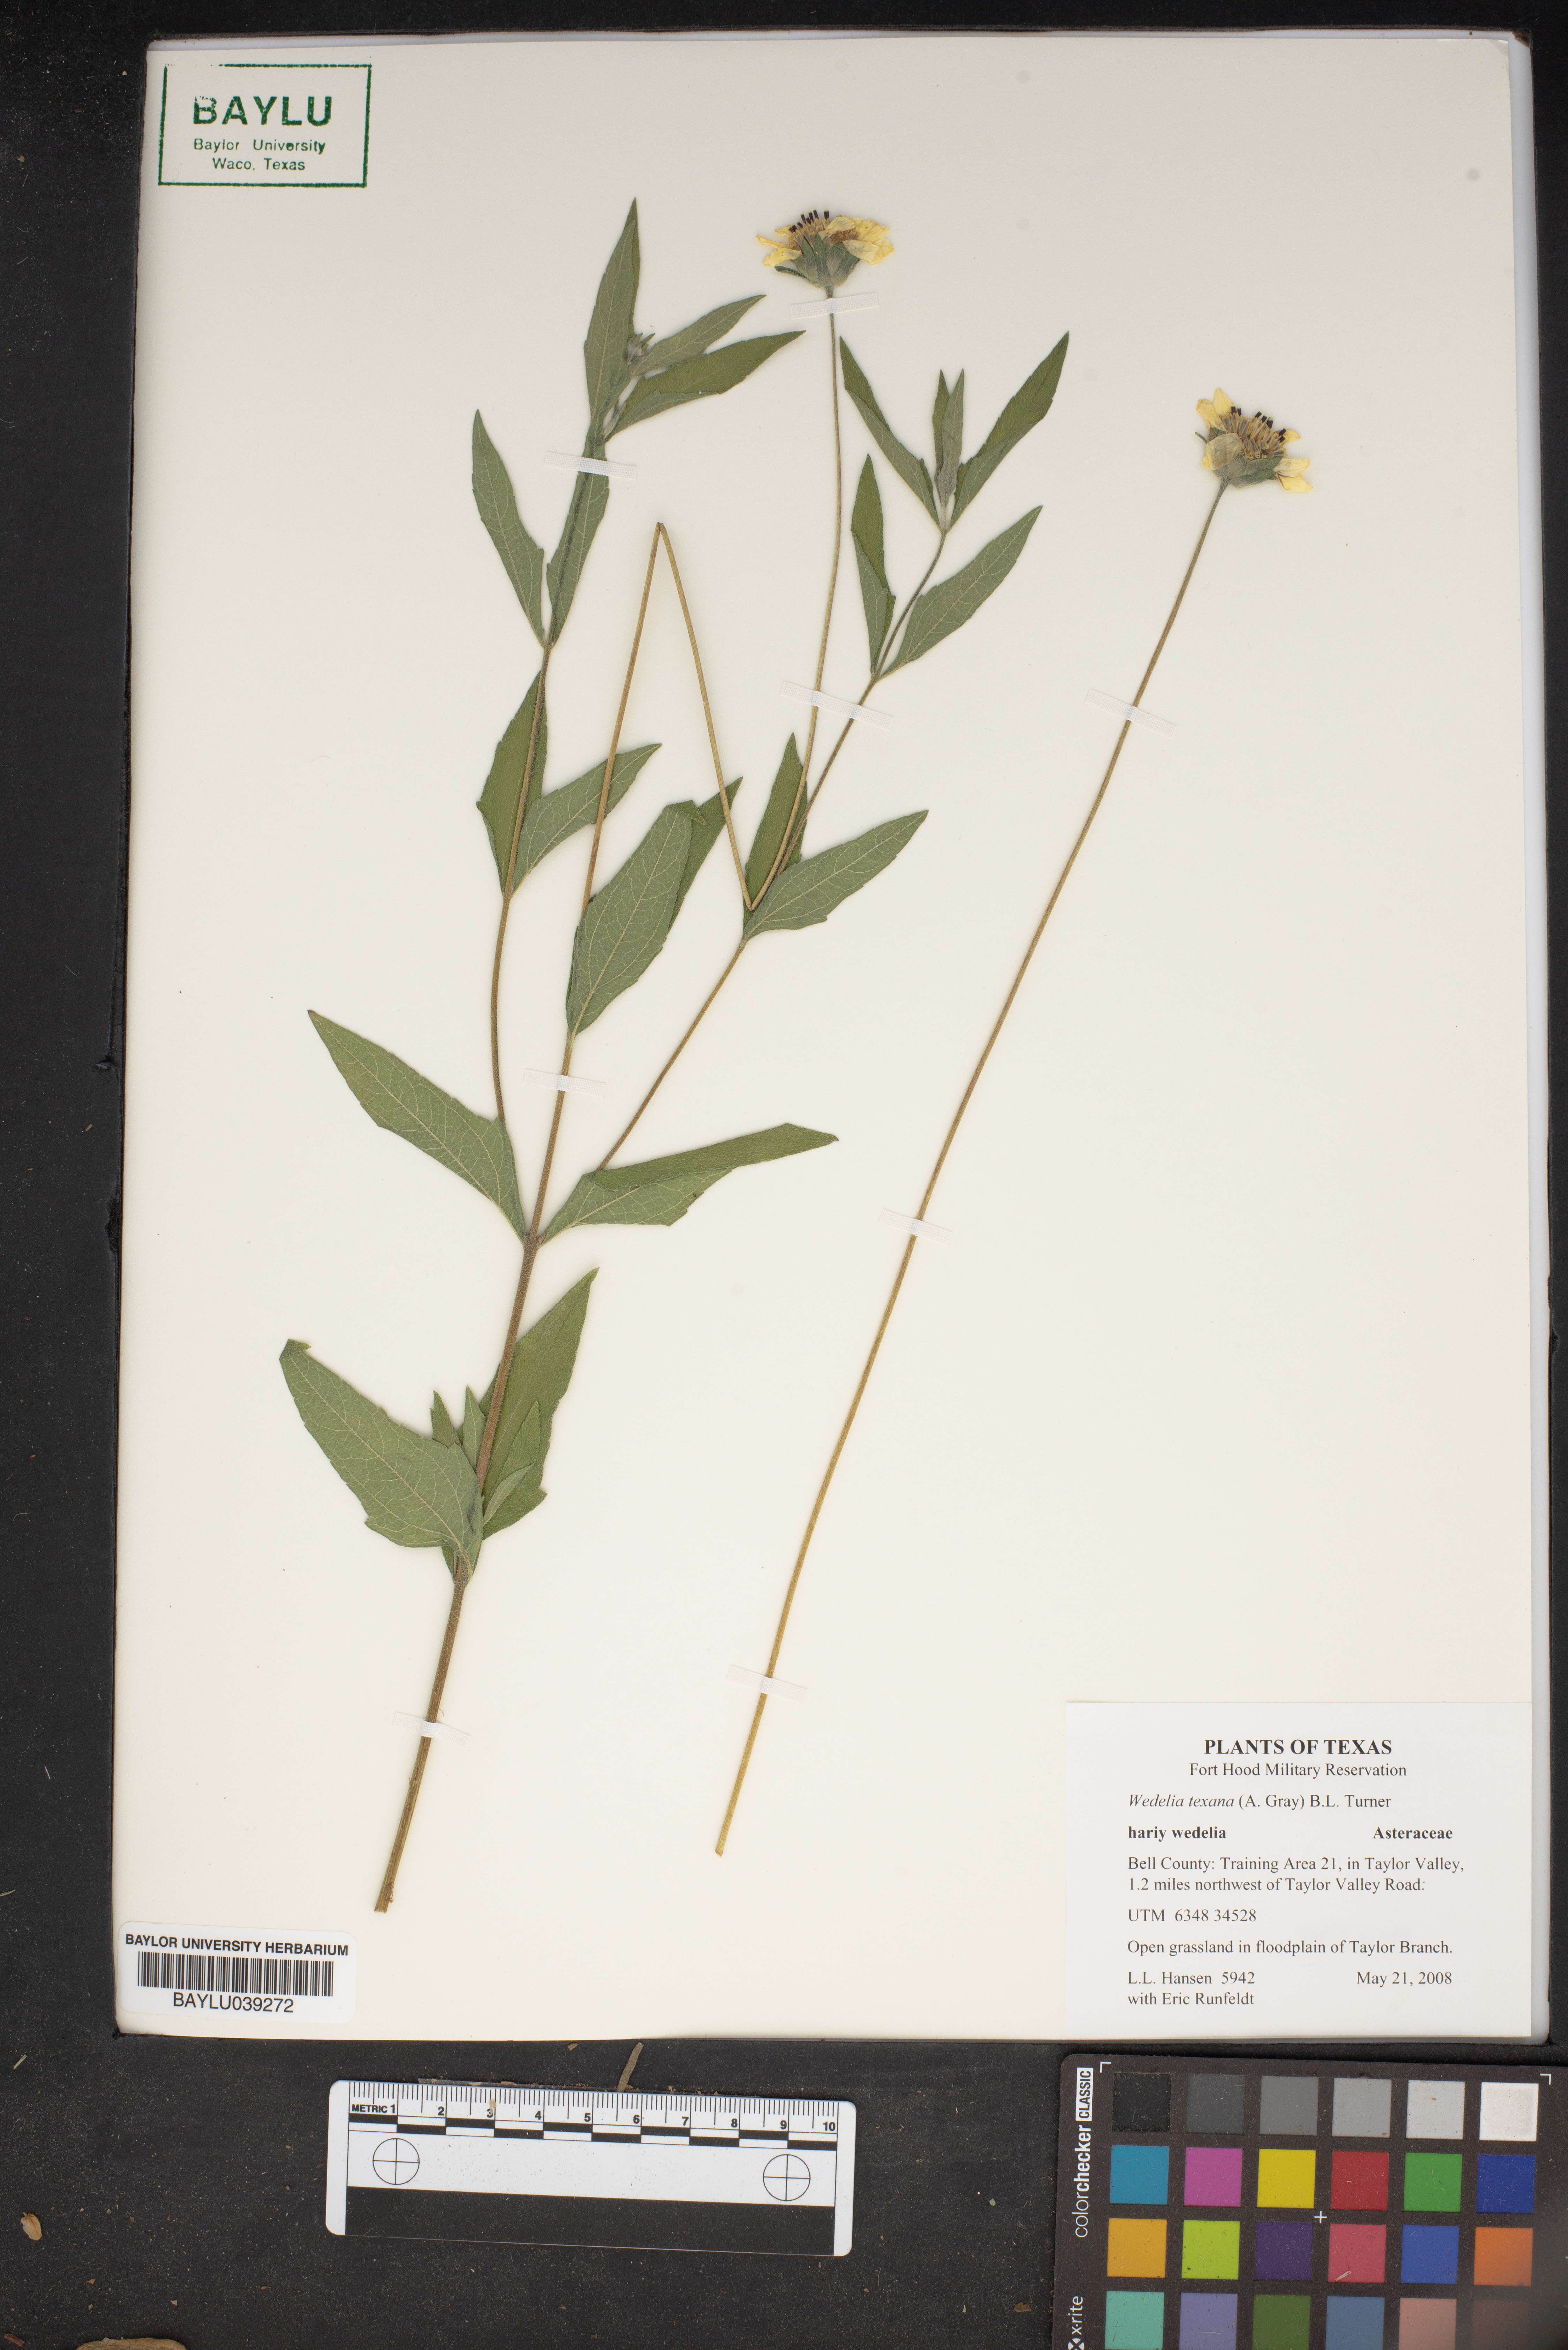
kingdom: Plantae
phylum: Tracheophyta
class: Magnoliopsida
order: Asterales
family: Asteraceae
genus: Wedelia
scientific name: Wedelia acapulcensis
